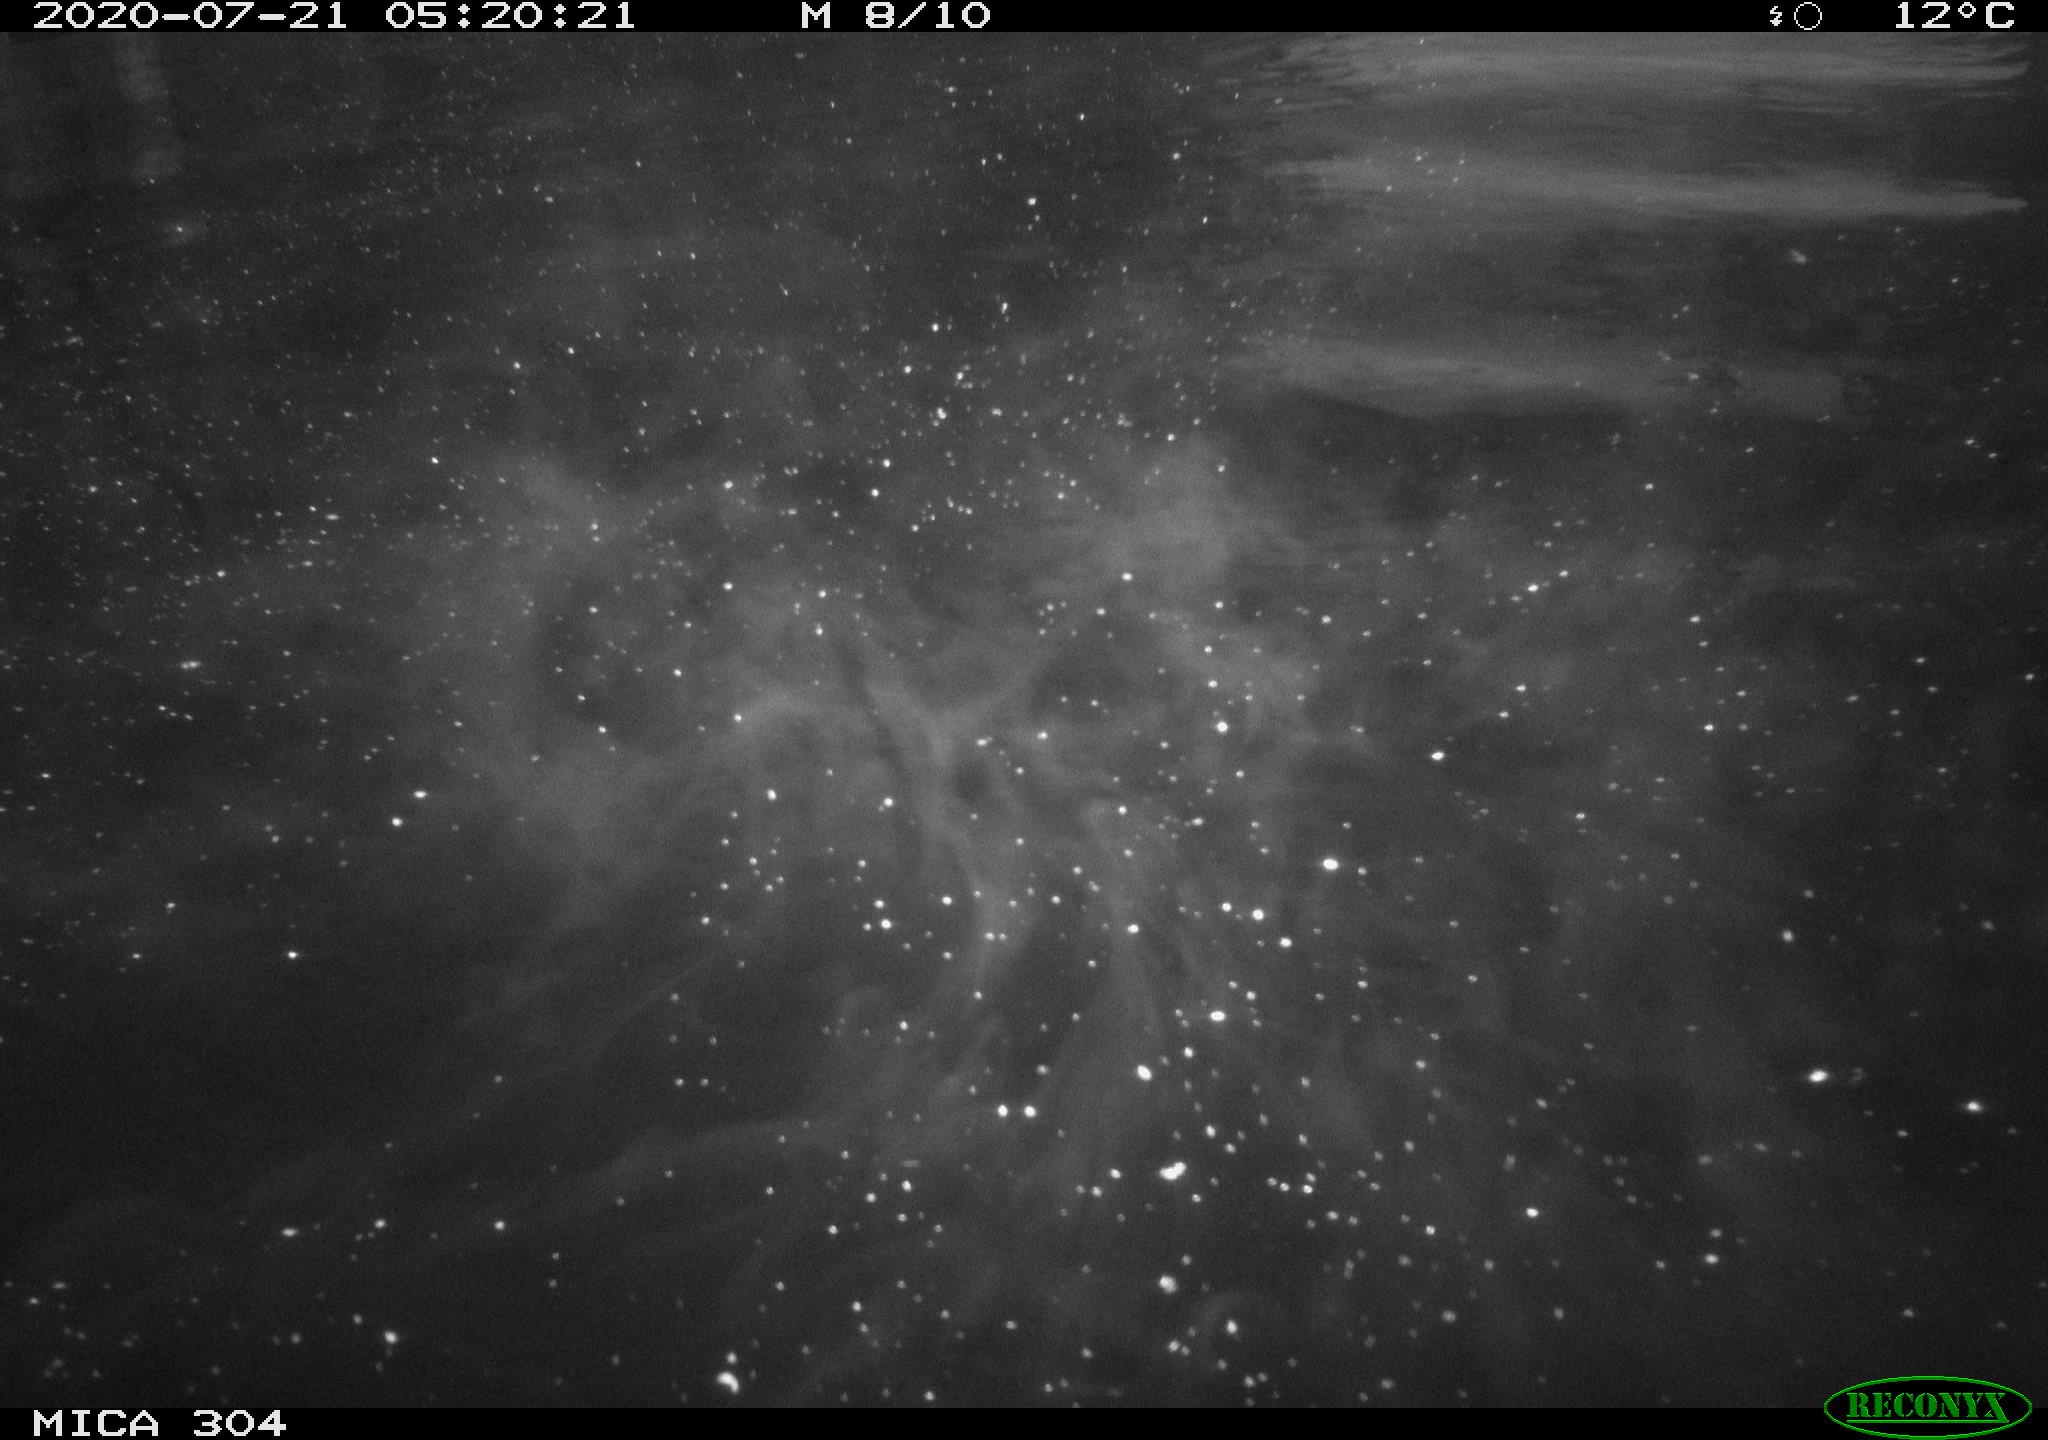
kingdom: Animalia
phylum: Chordata
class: Aves
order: Anseriformes
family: Anatidae
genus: Anas
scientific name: Anas platyrhynchos
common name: Mallard
